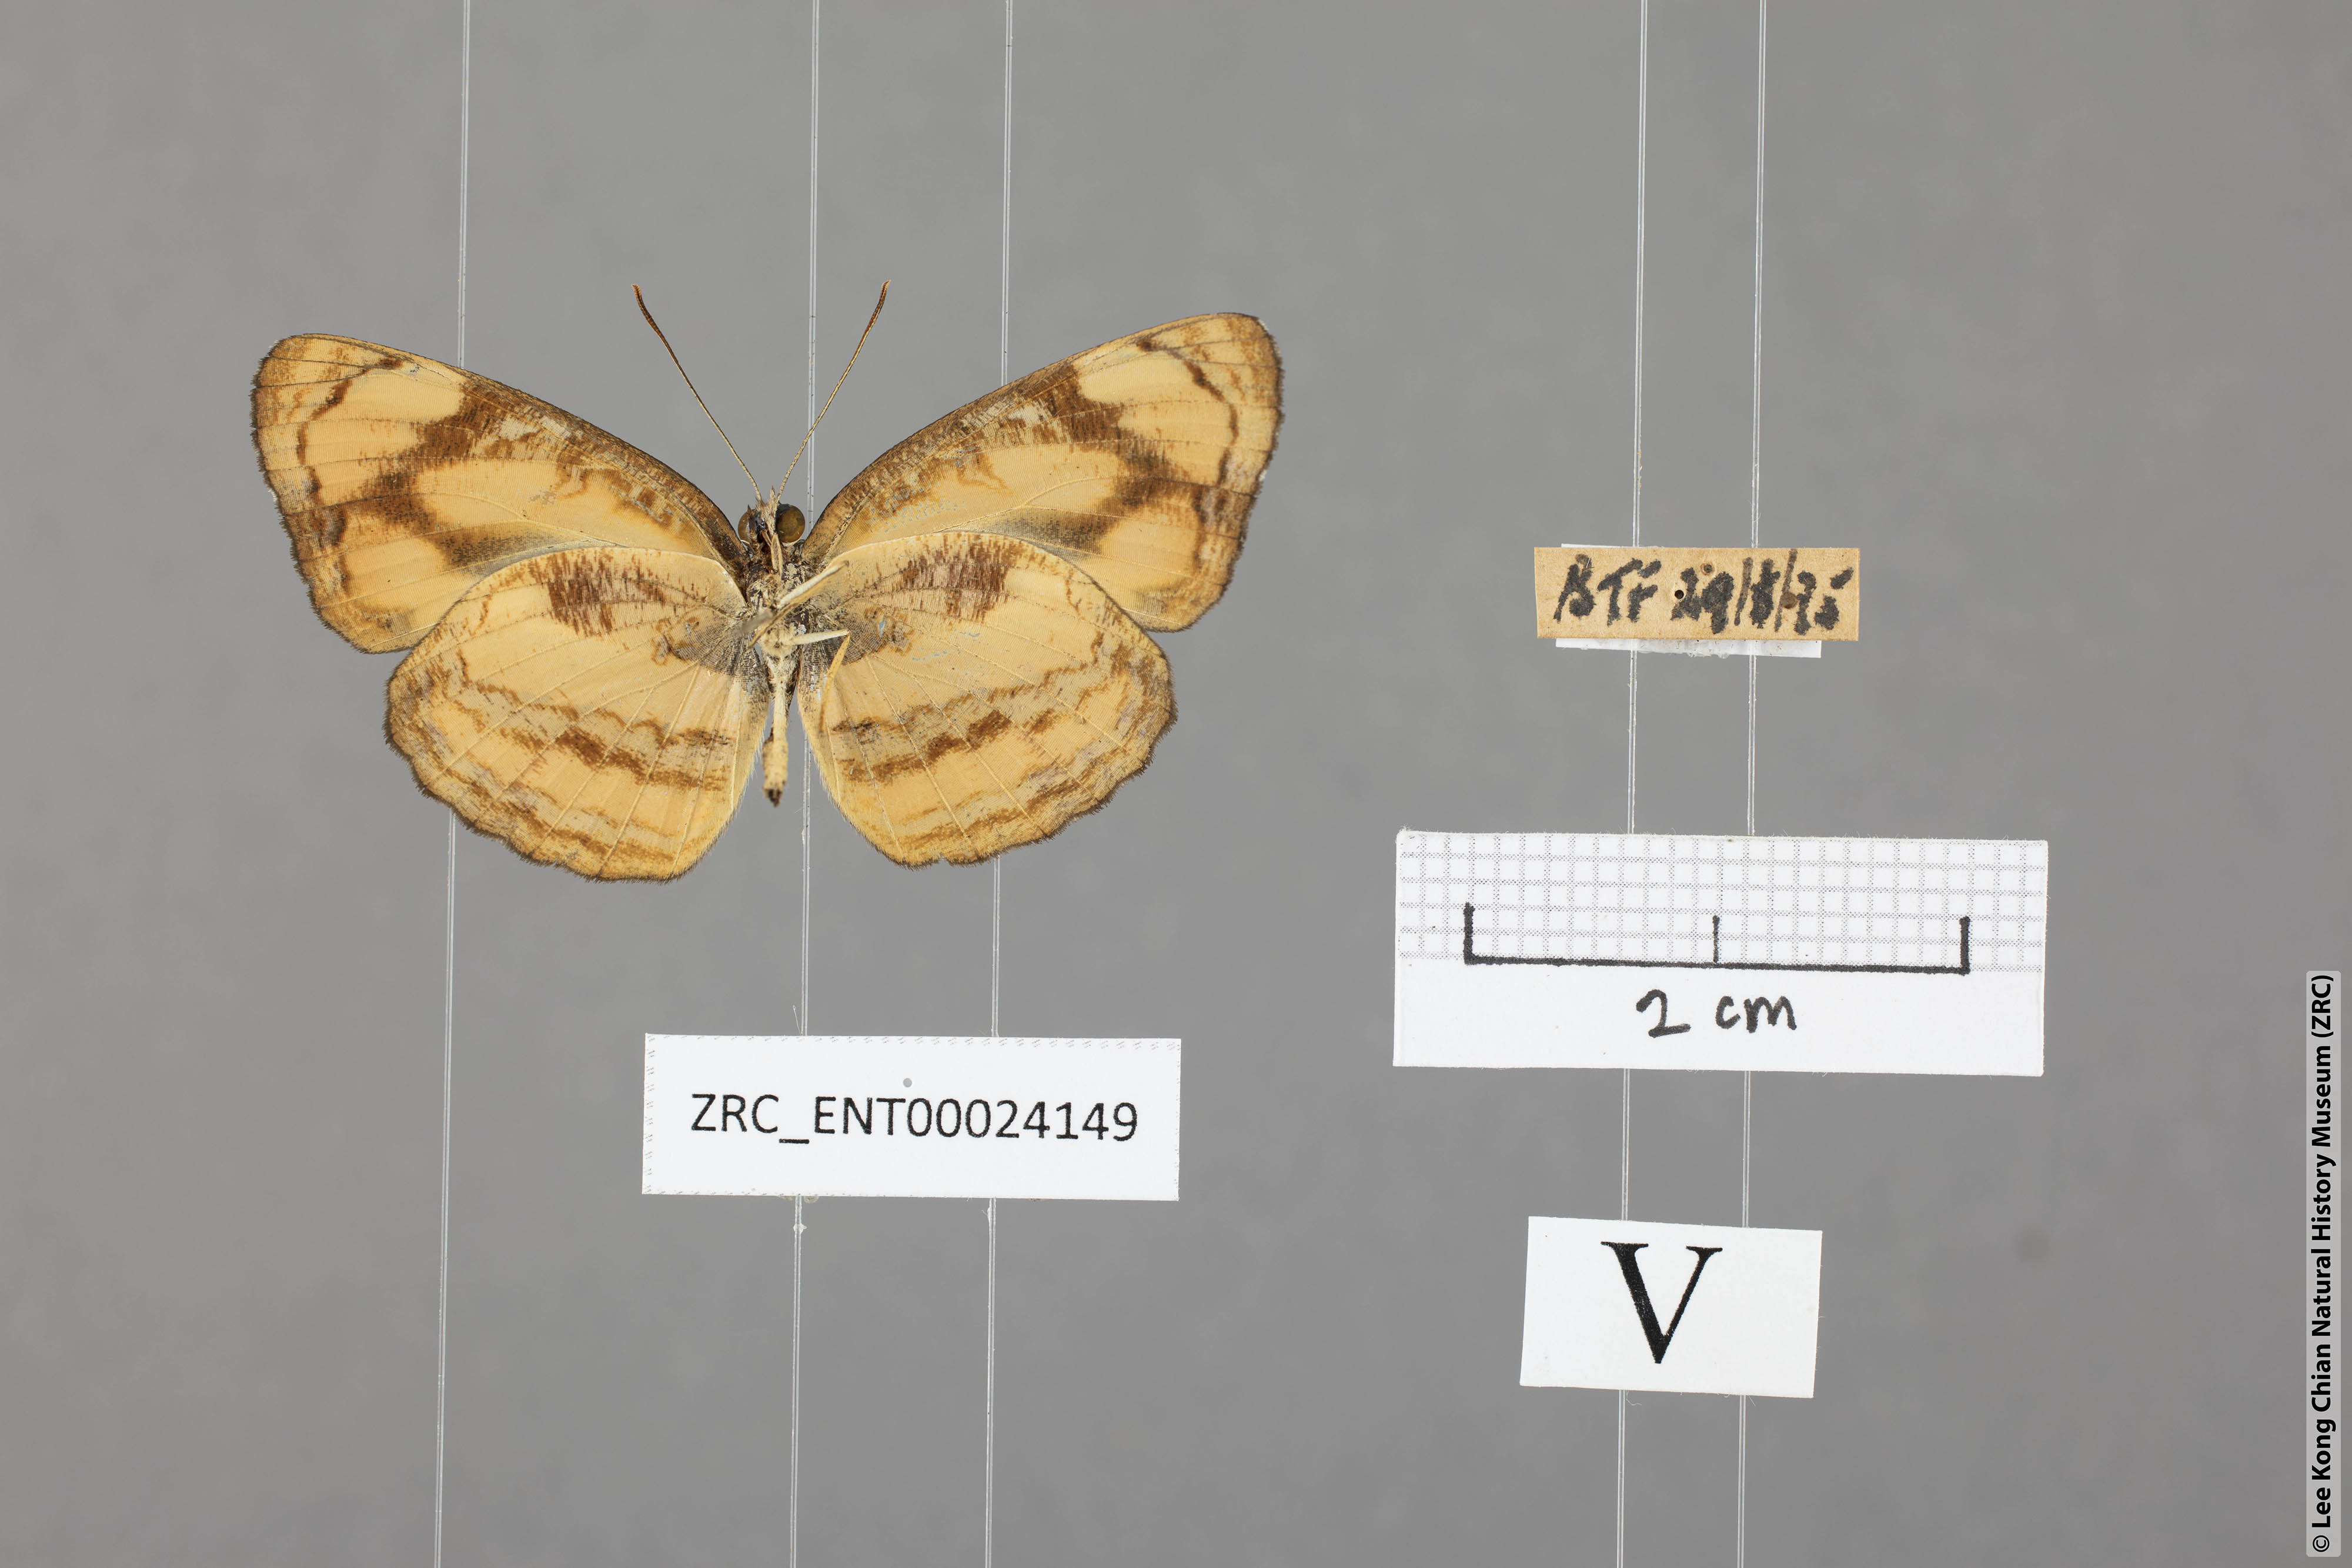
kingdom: Animalia
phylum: Arthropoda
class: Insecta
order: Lepidoptera
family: Nymphalidae
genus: Pantoporia
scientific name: Pantoporia sandaka
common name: Extra lascar
